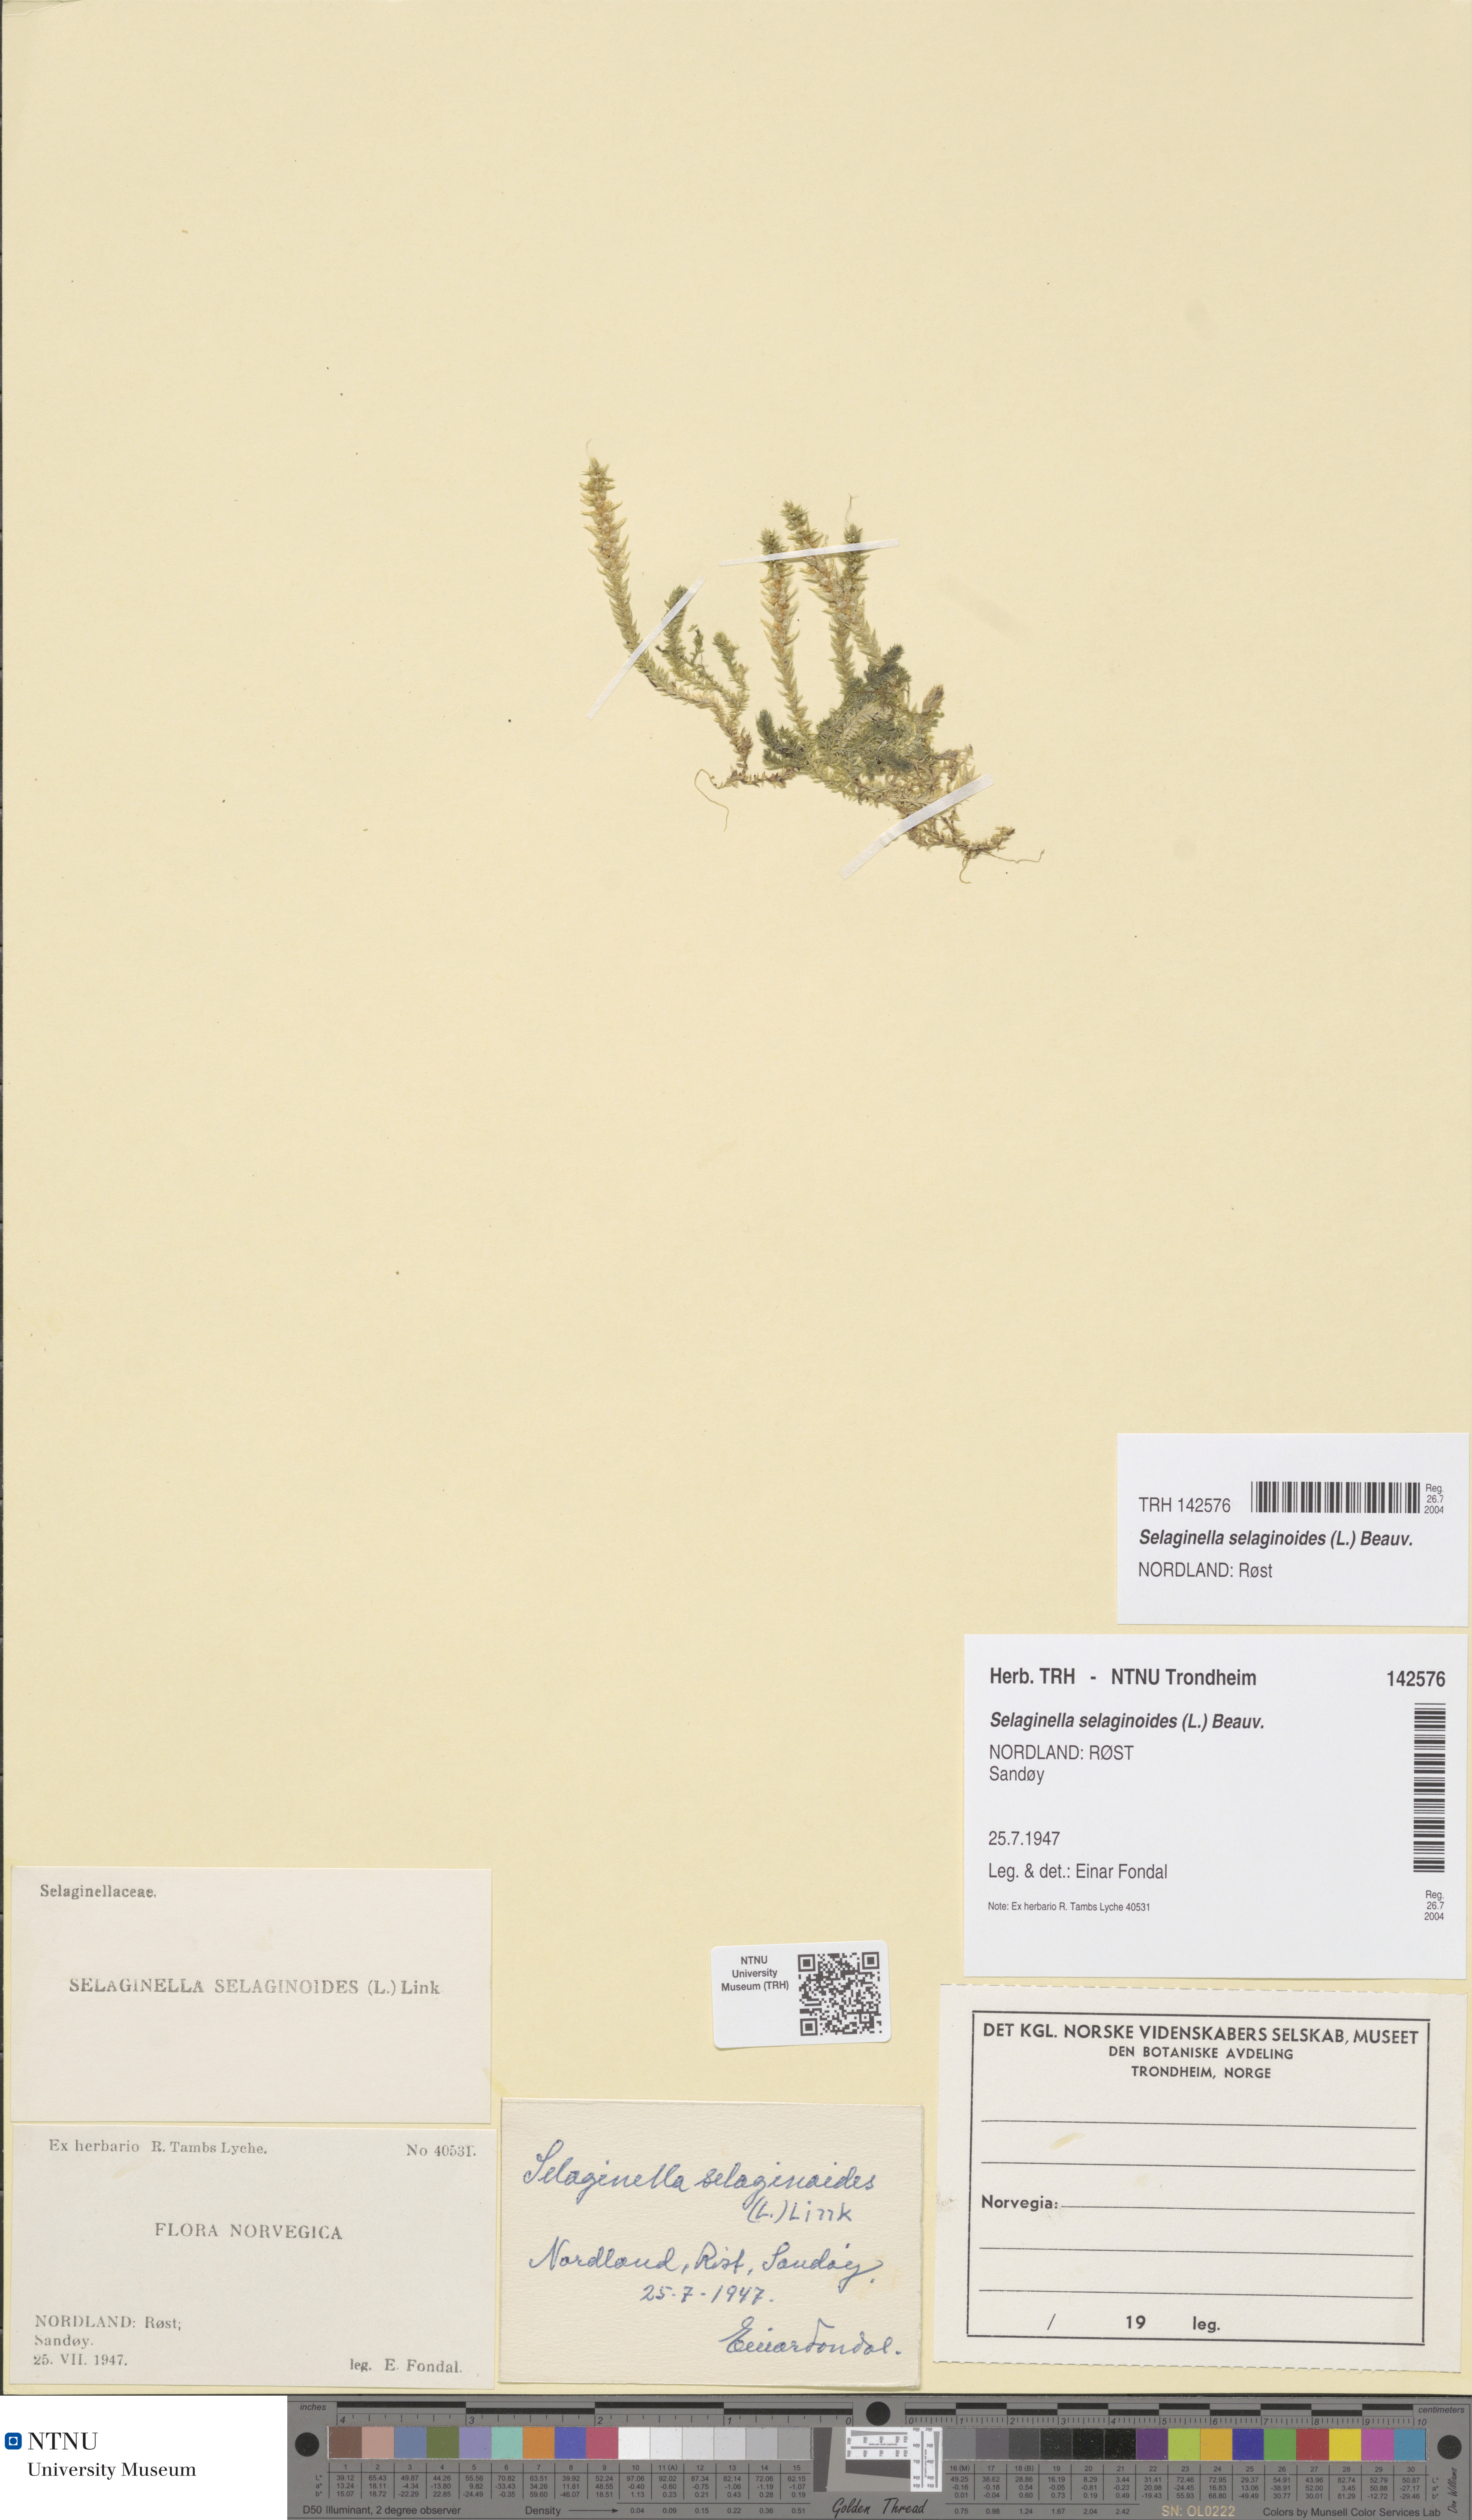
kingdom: Plantae
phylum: Tracheophyta
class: Lycopodiopsida
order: Selaginellales
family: Selaginellaceae
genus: Selaginella
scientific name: Selaginella selaginoides
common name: Prickly mountain-moss
